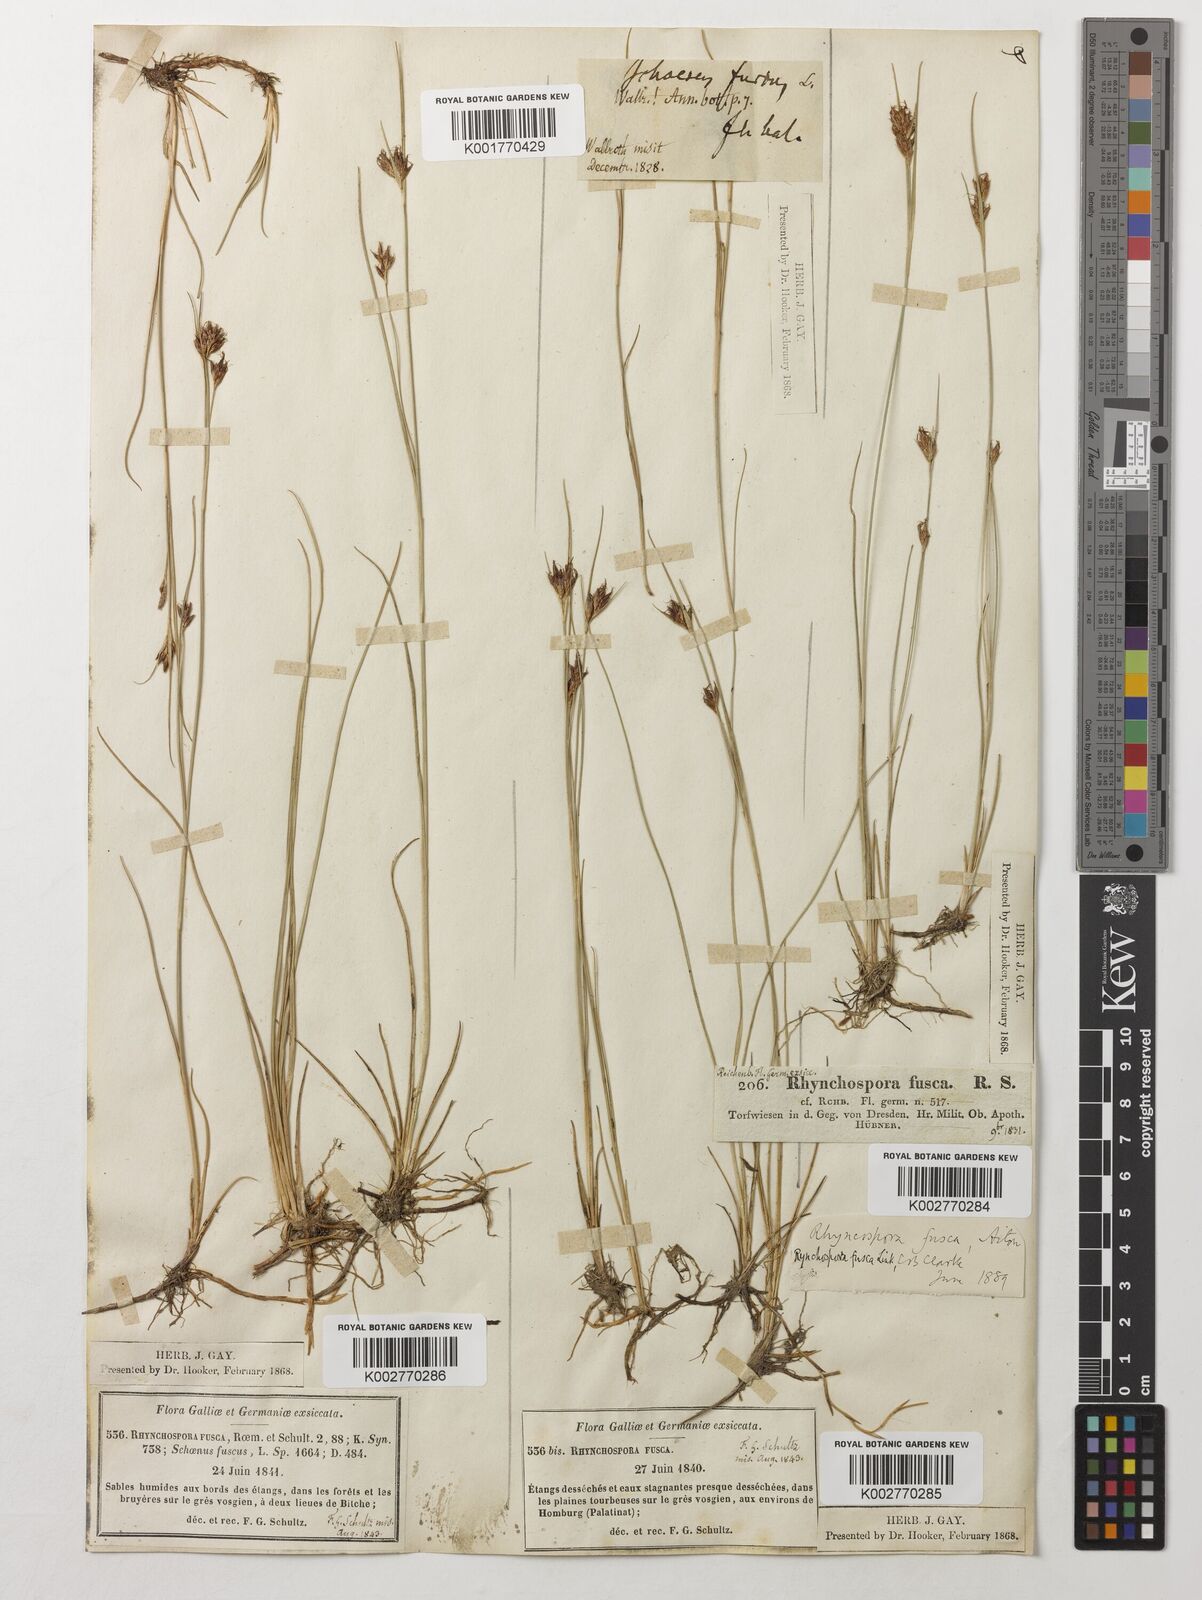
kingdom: Plantae
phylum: Tracheophyta
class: Liliopsida
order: Poales
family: Cyperaceae
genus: Rhynchospora
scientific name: Rhynchospora fusca
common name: Brown beak-sedge
